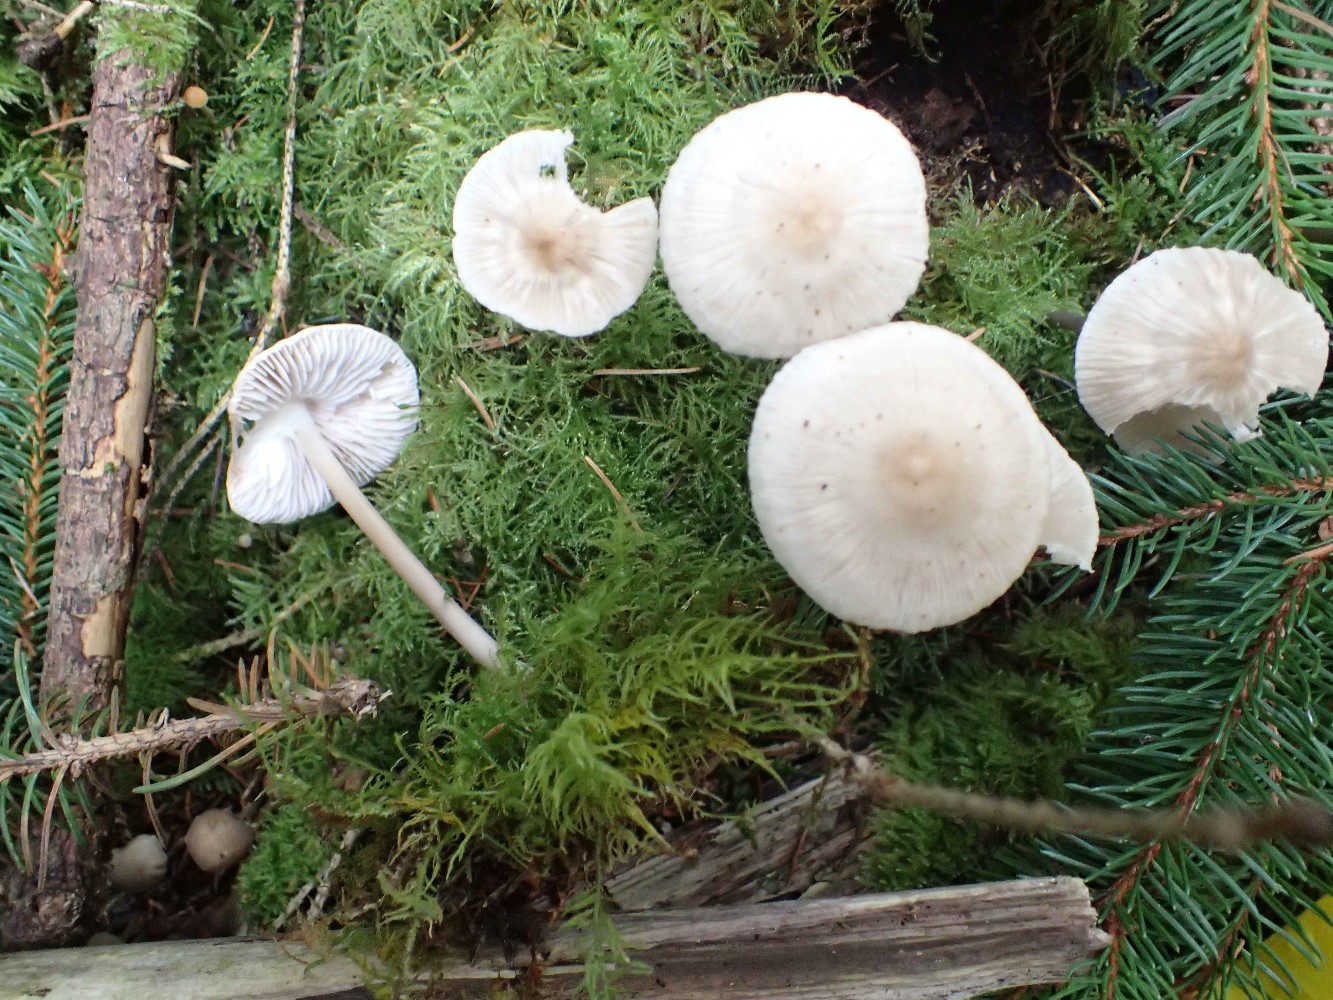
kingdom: Fungi
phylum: Basidiomycota
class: Agaricomycetes
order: Agaricales
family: Mycenaceae
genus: Mycena
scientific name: Mycena galericulata
